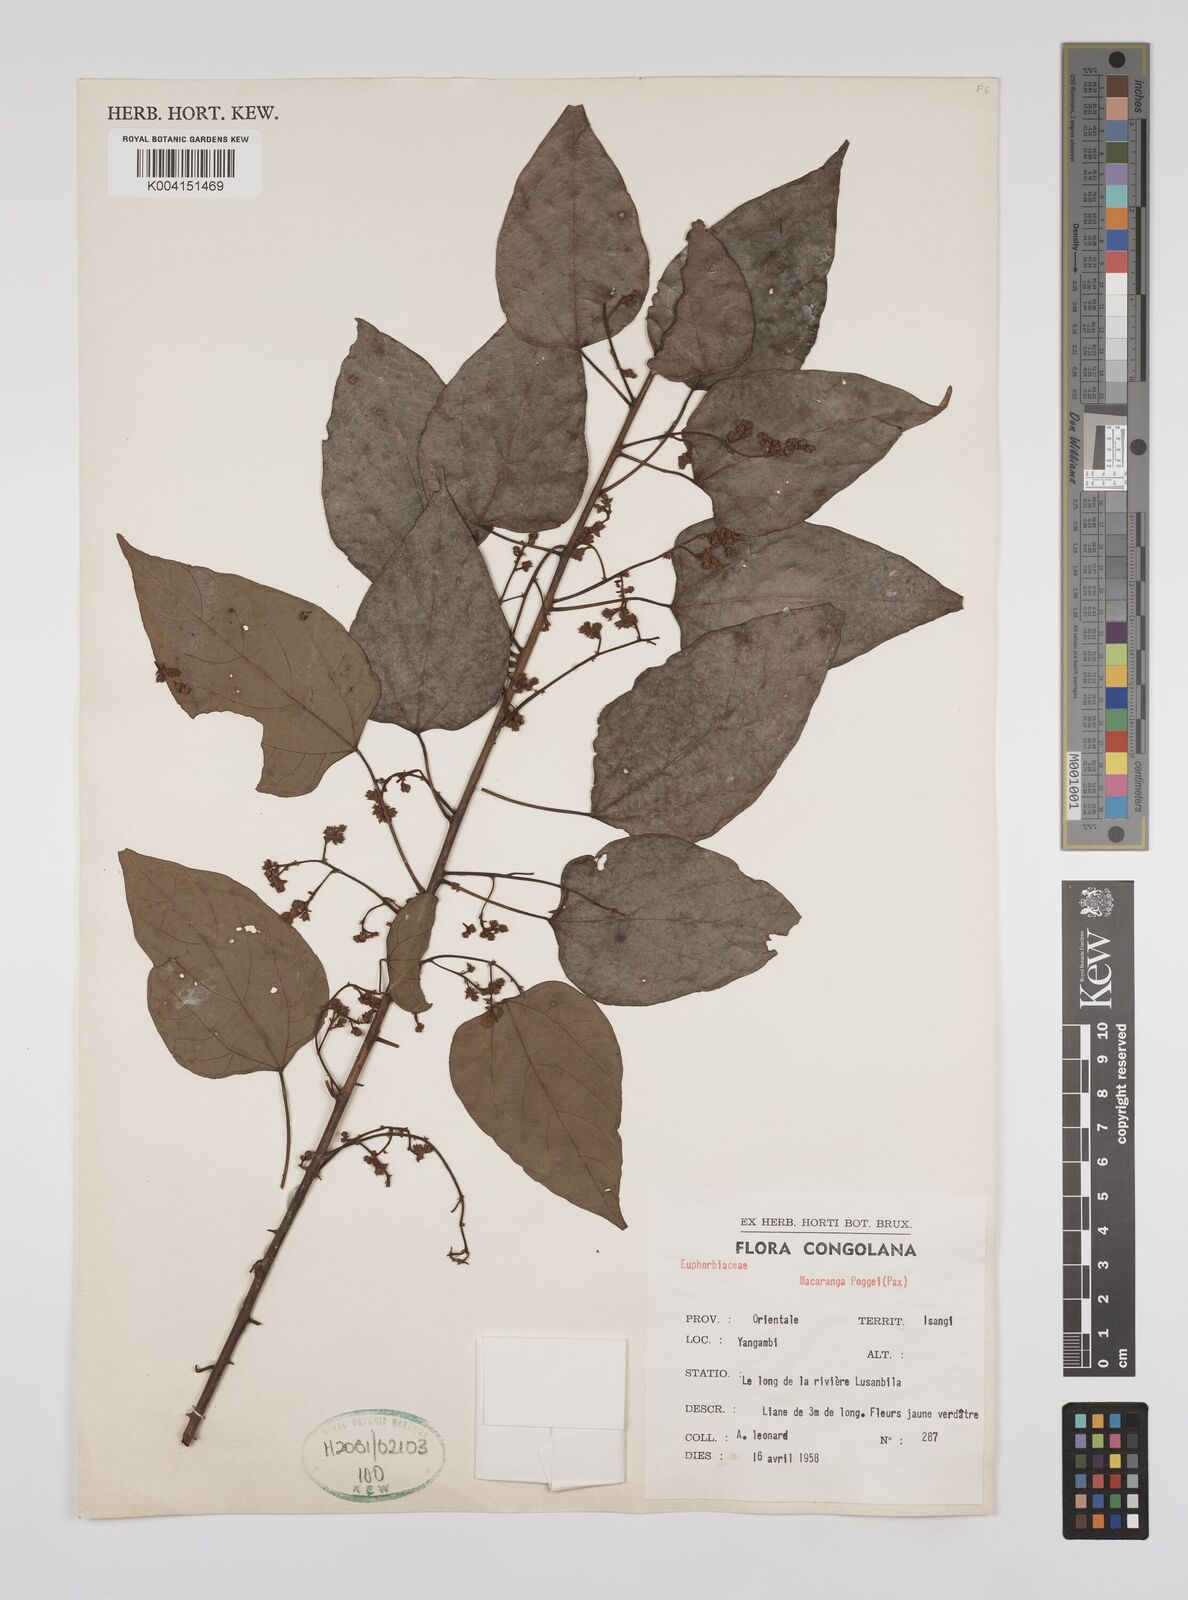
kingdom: Plantae
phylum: Tracheophyta
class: Magnoliopsida
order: Malpighiales
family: Euphorbiaceae
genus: Macaranga
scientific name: Macaranga poggei
